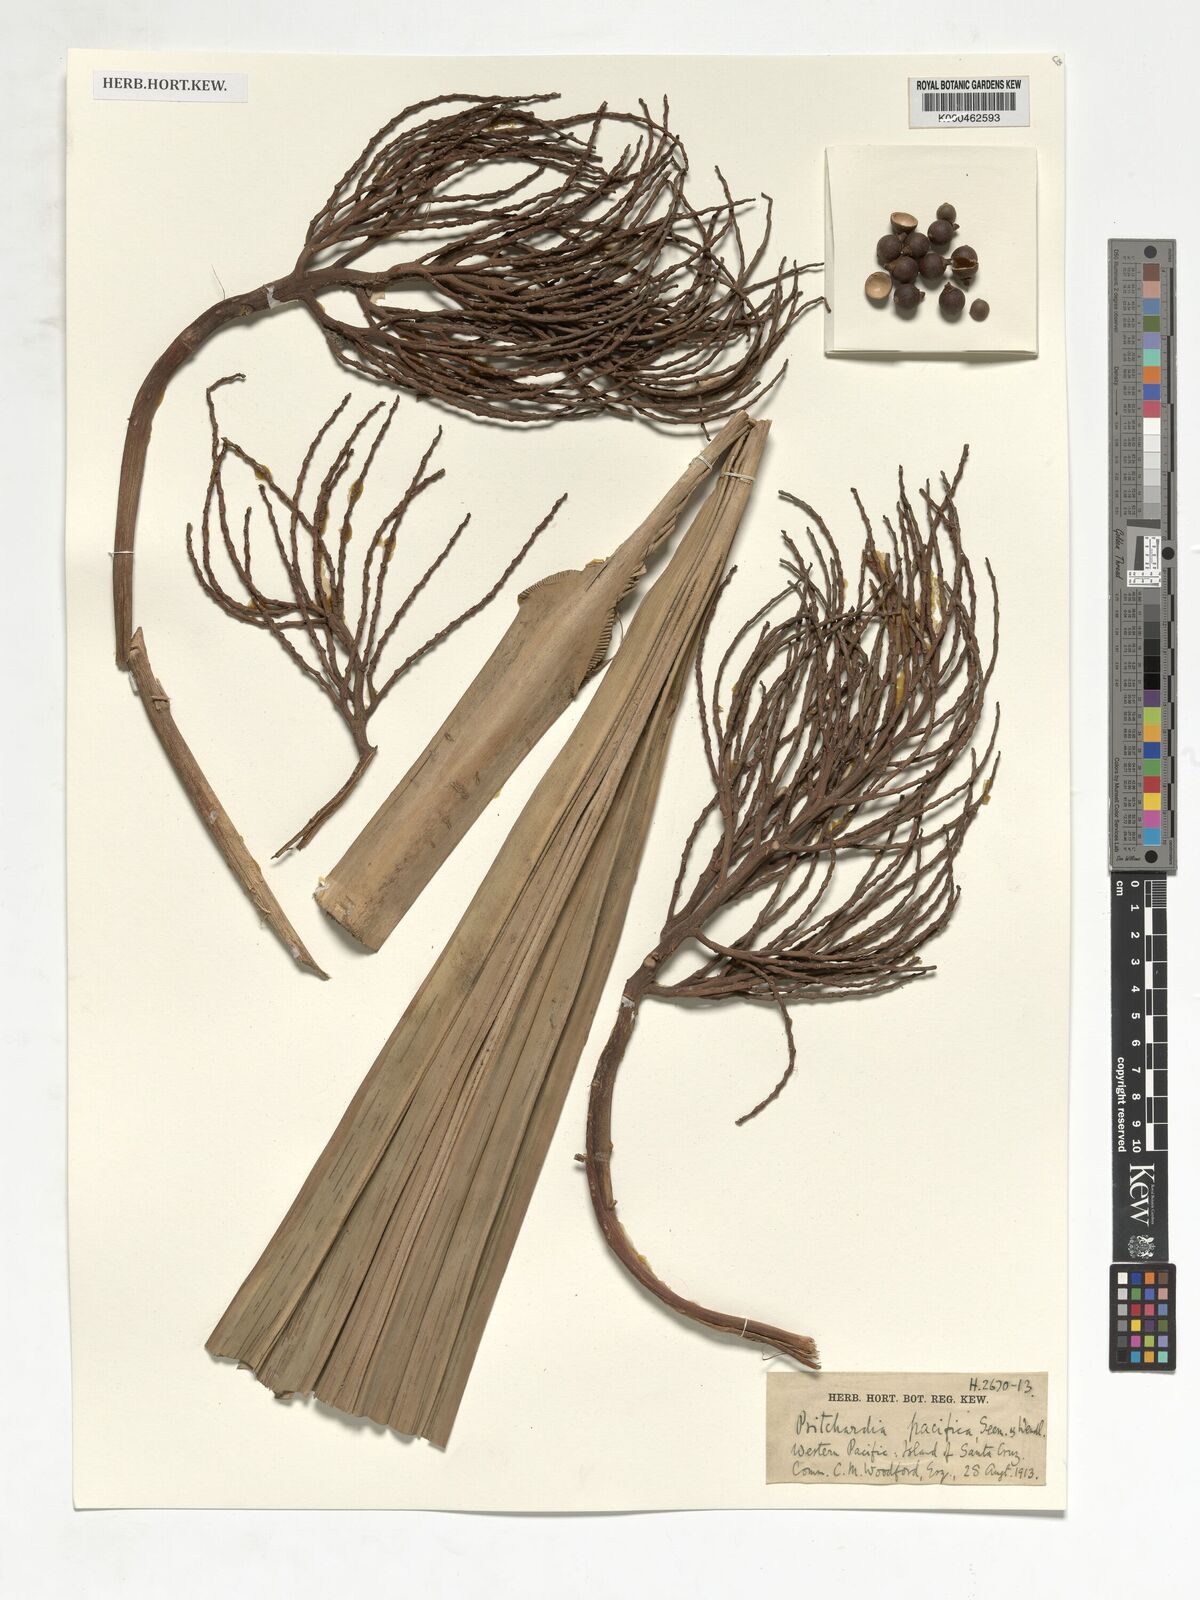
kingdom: Plantae
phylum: Tracheophyta
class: Liliopsida
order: Arecales
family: Arecaceae
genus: Pritchardia
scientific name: Pritchardia pacifica
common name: Fiji fan palm
